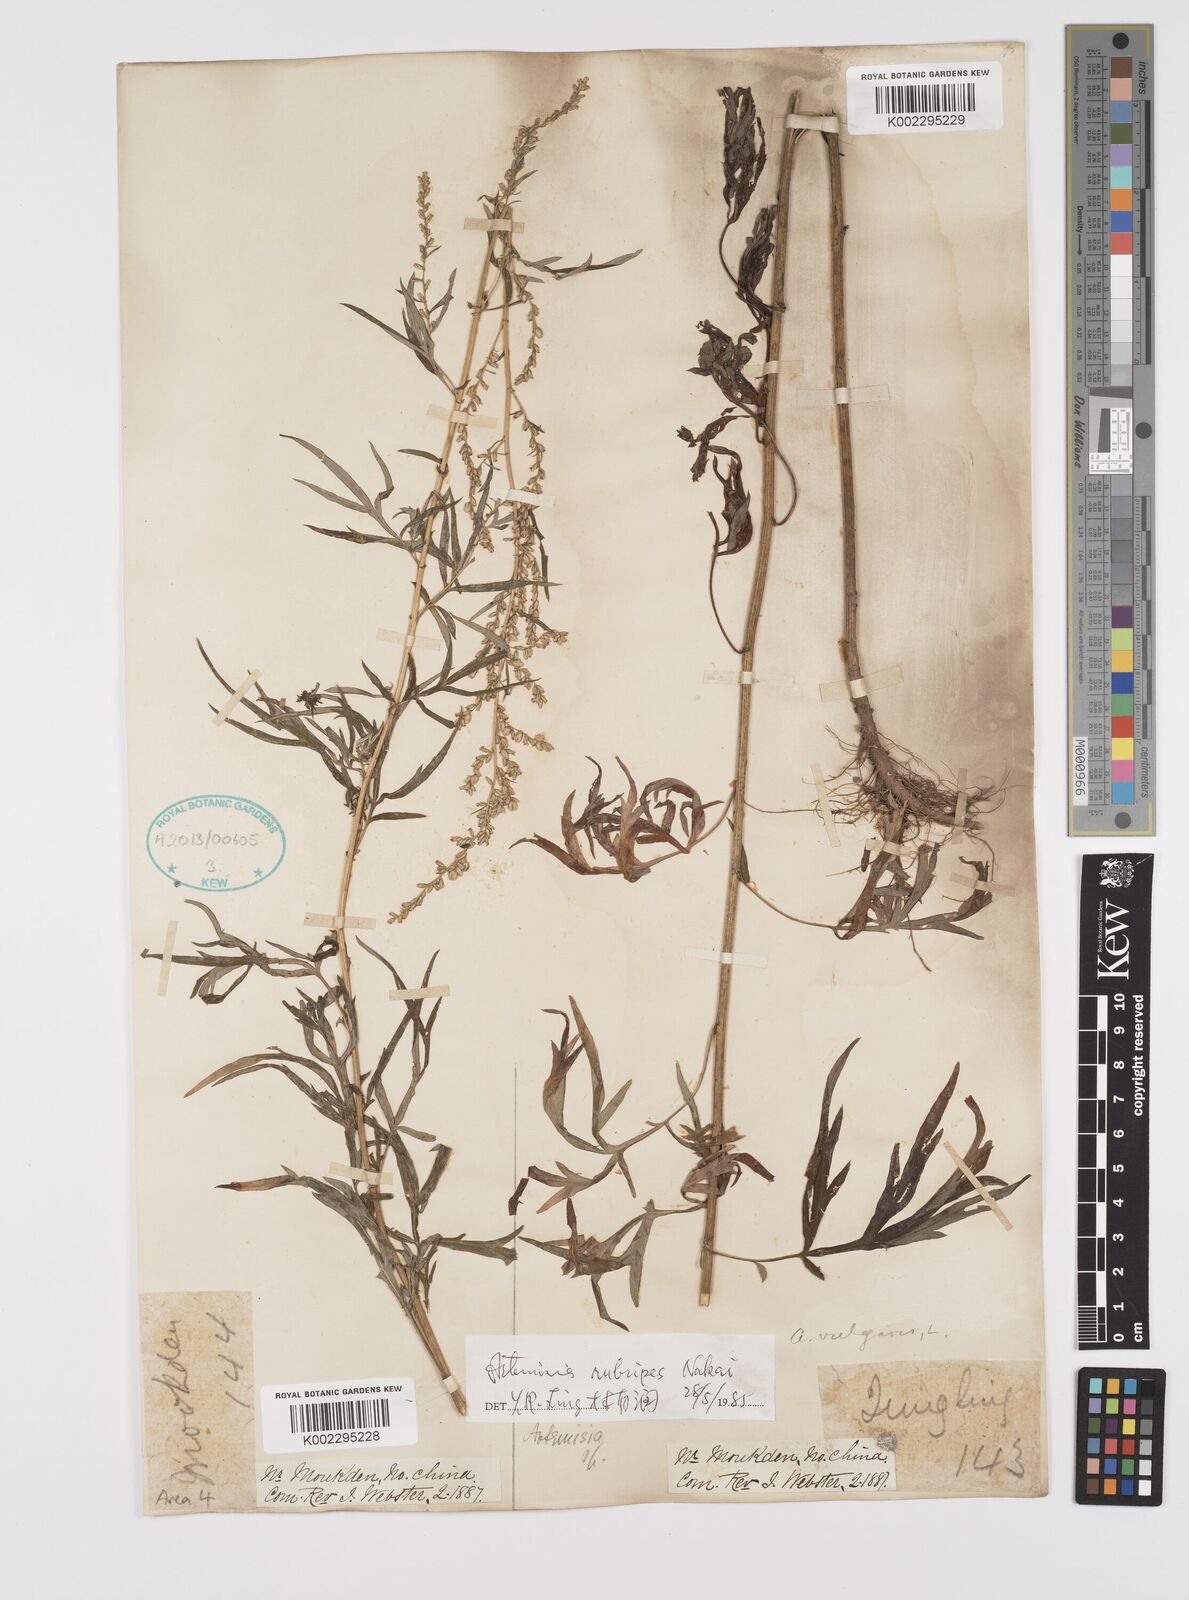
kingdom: Plantae
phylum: Tracheophyta
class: Magnoliopsida
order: Asterales
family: Asteraceae
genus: Artemisia
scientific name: Artemisia rubripes
